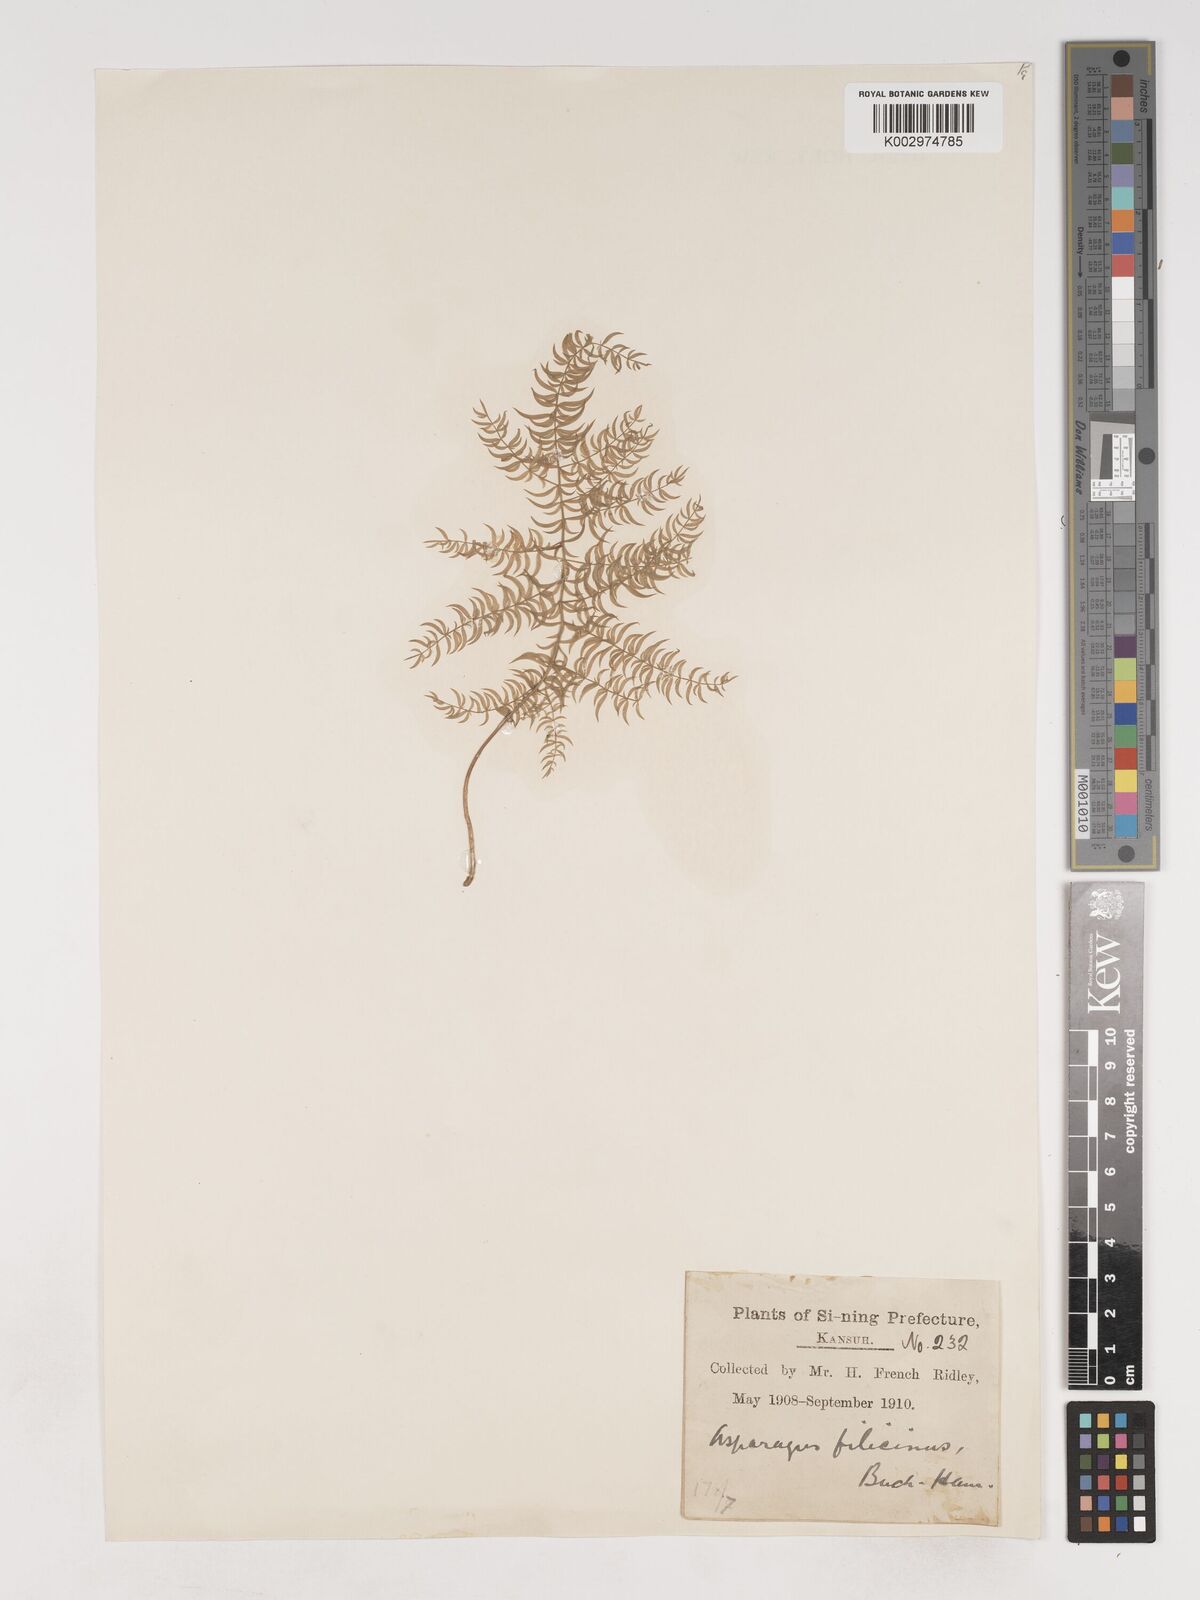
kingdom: Plantae
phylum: Tracheophyta
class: Liliopsida
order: Asparagales
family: Asparagaceae
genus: Asparagus
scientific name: Asparagus filicinus
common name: Fern asparagus
